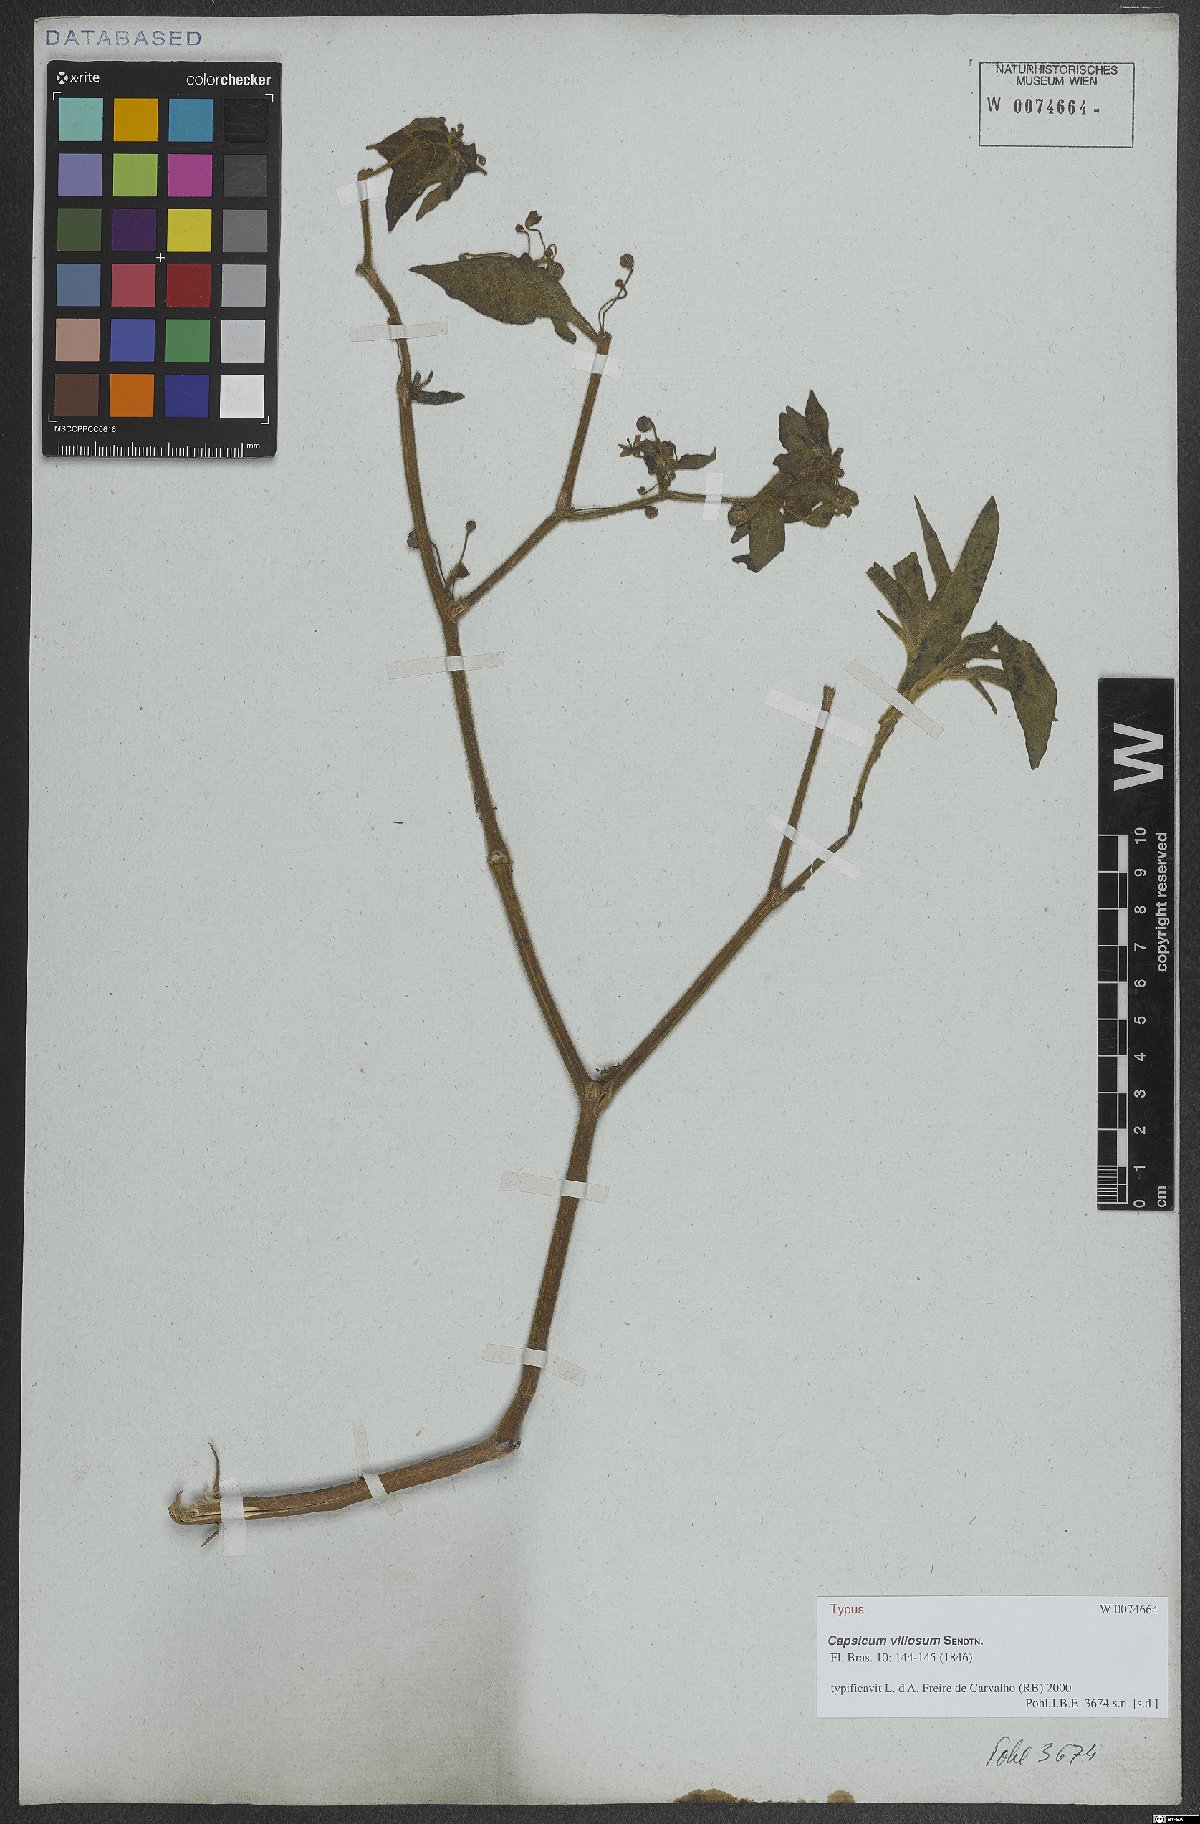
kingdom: Plantae
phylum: Tracheophyta
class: Magnoliopsida
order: Solanales
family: Solanaceae
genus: Capsicum
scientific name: Capsicum villosum
